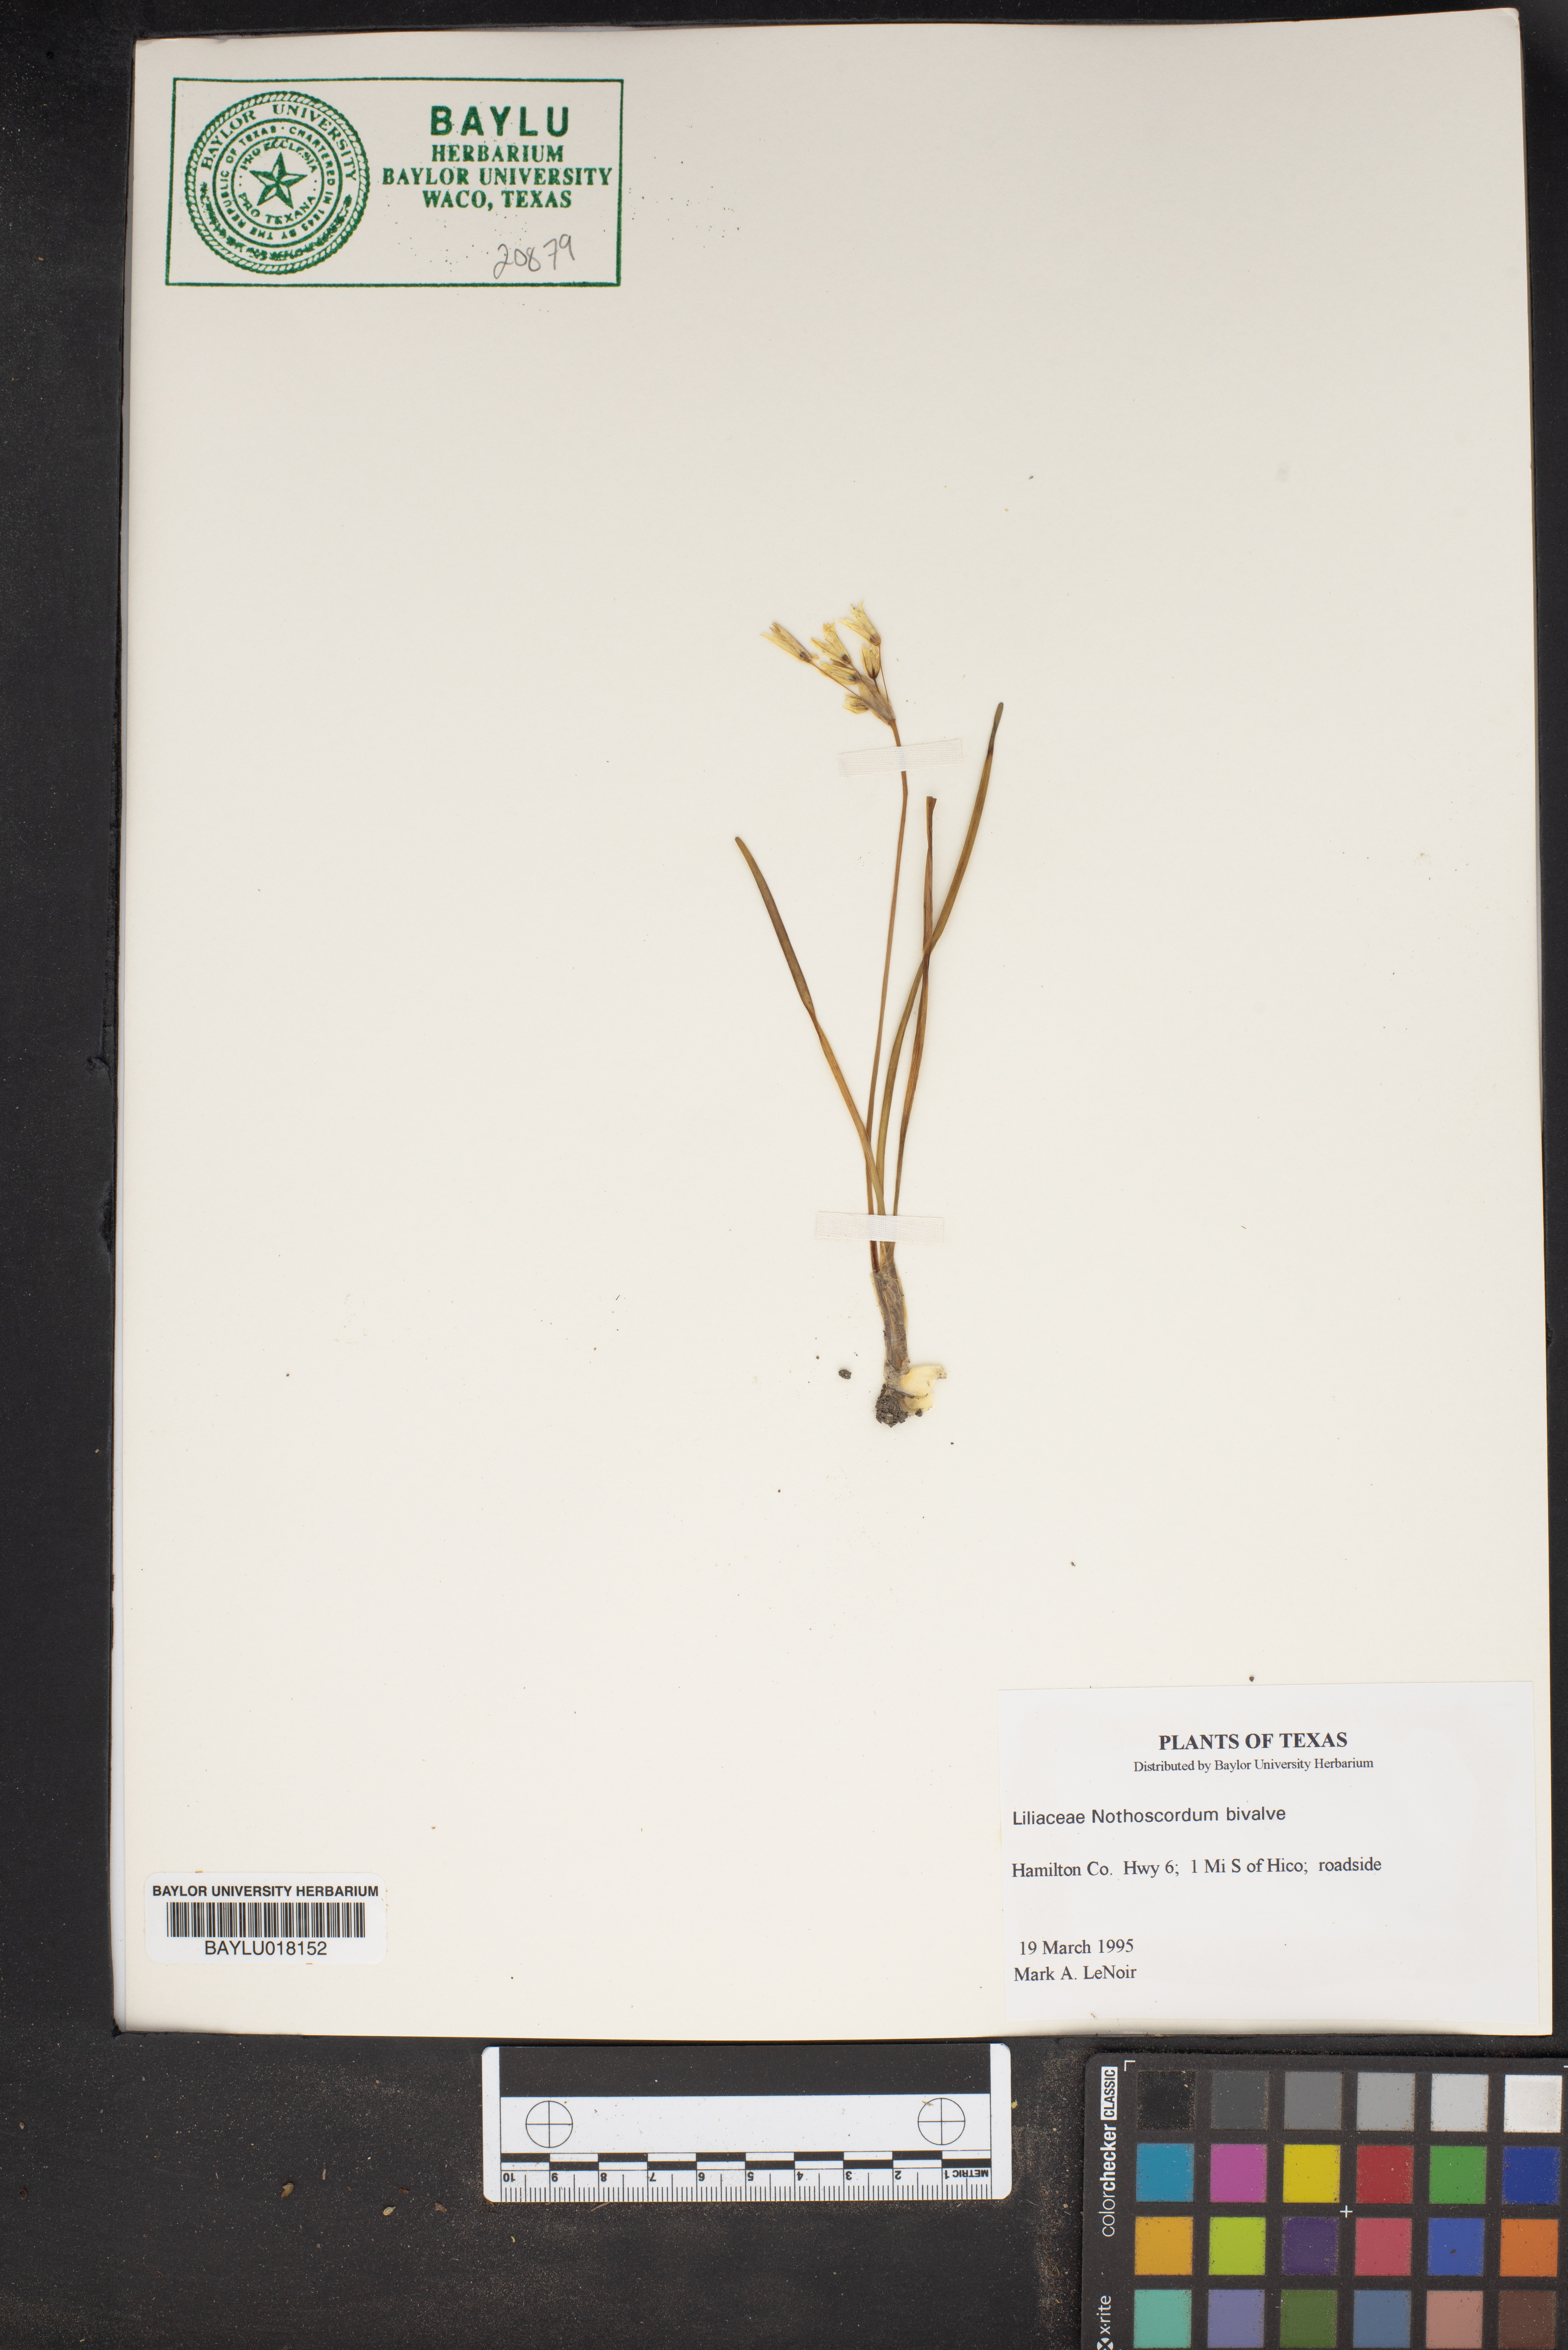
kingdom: Plantae
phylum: Tracheophyta
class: Liliopsida
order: Liliales
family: Liliaceae
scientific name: Liliaceae
